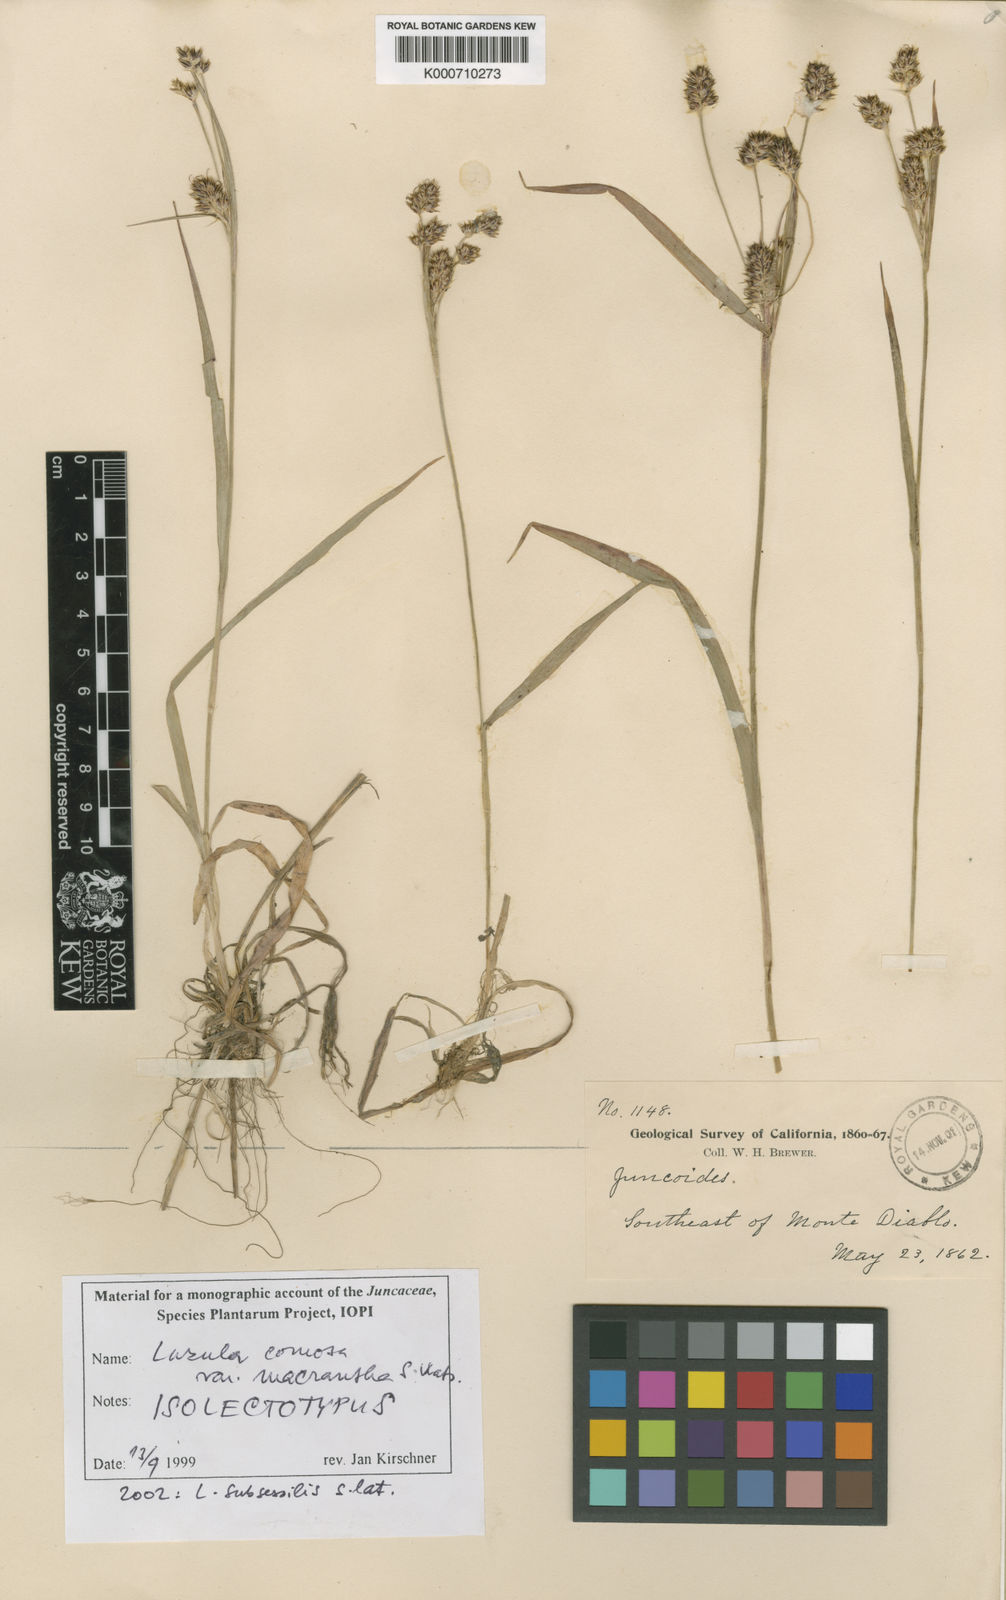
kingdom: Plantae
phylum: Tracheophyta
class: Liliopsida
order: Poales
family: Juncaceae
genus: Luzula
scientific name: Luzula macrantha
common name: Large-anthered woodrush
